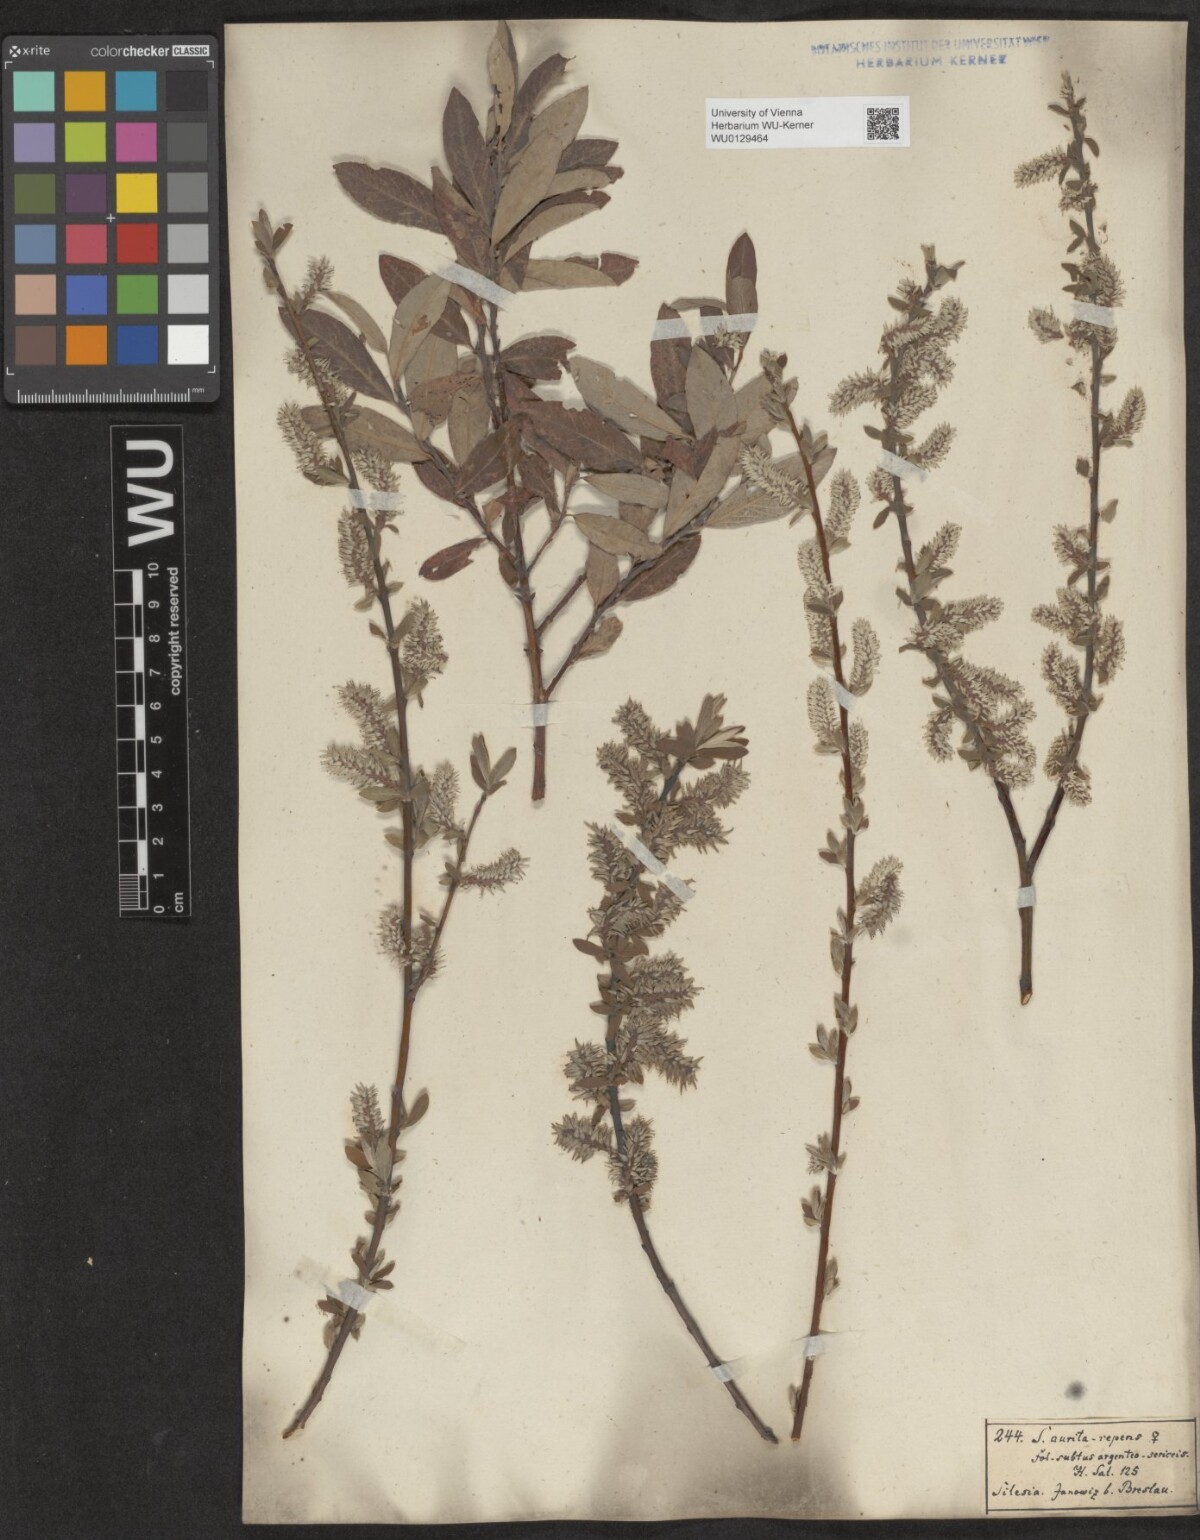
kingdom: Plantae
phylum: Tracheophyta
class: Magnoliopsida
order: Malpighiales
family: Salicaceae
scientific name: Salicaceae
